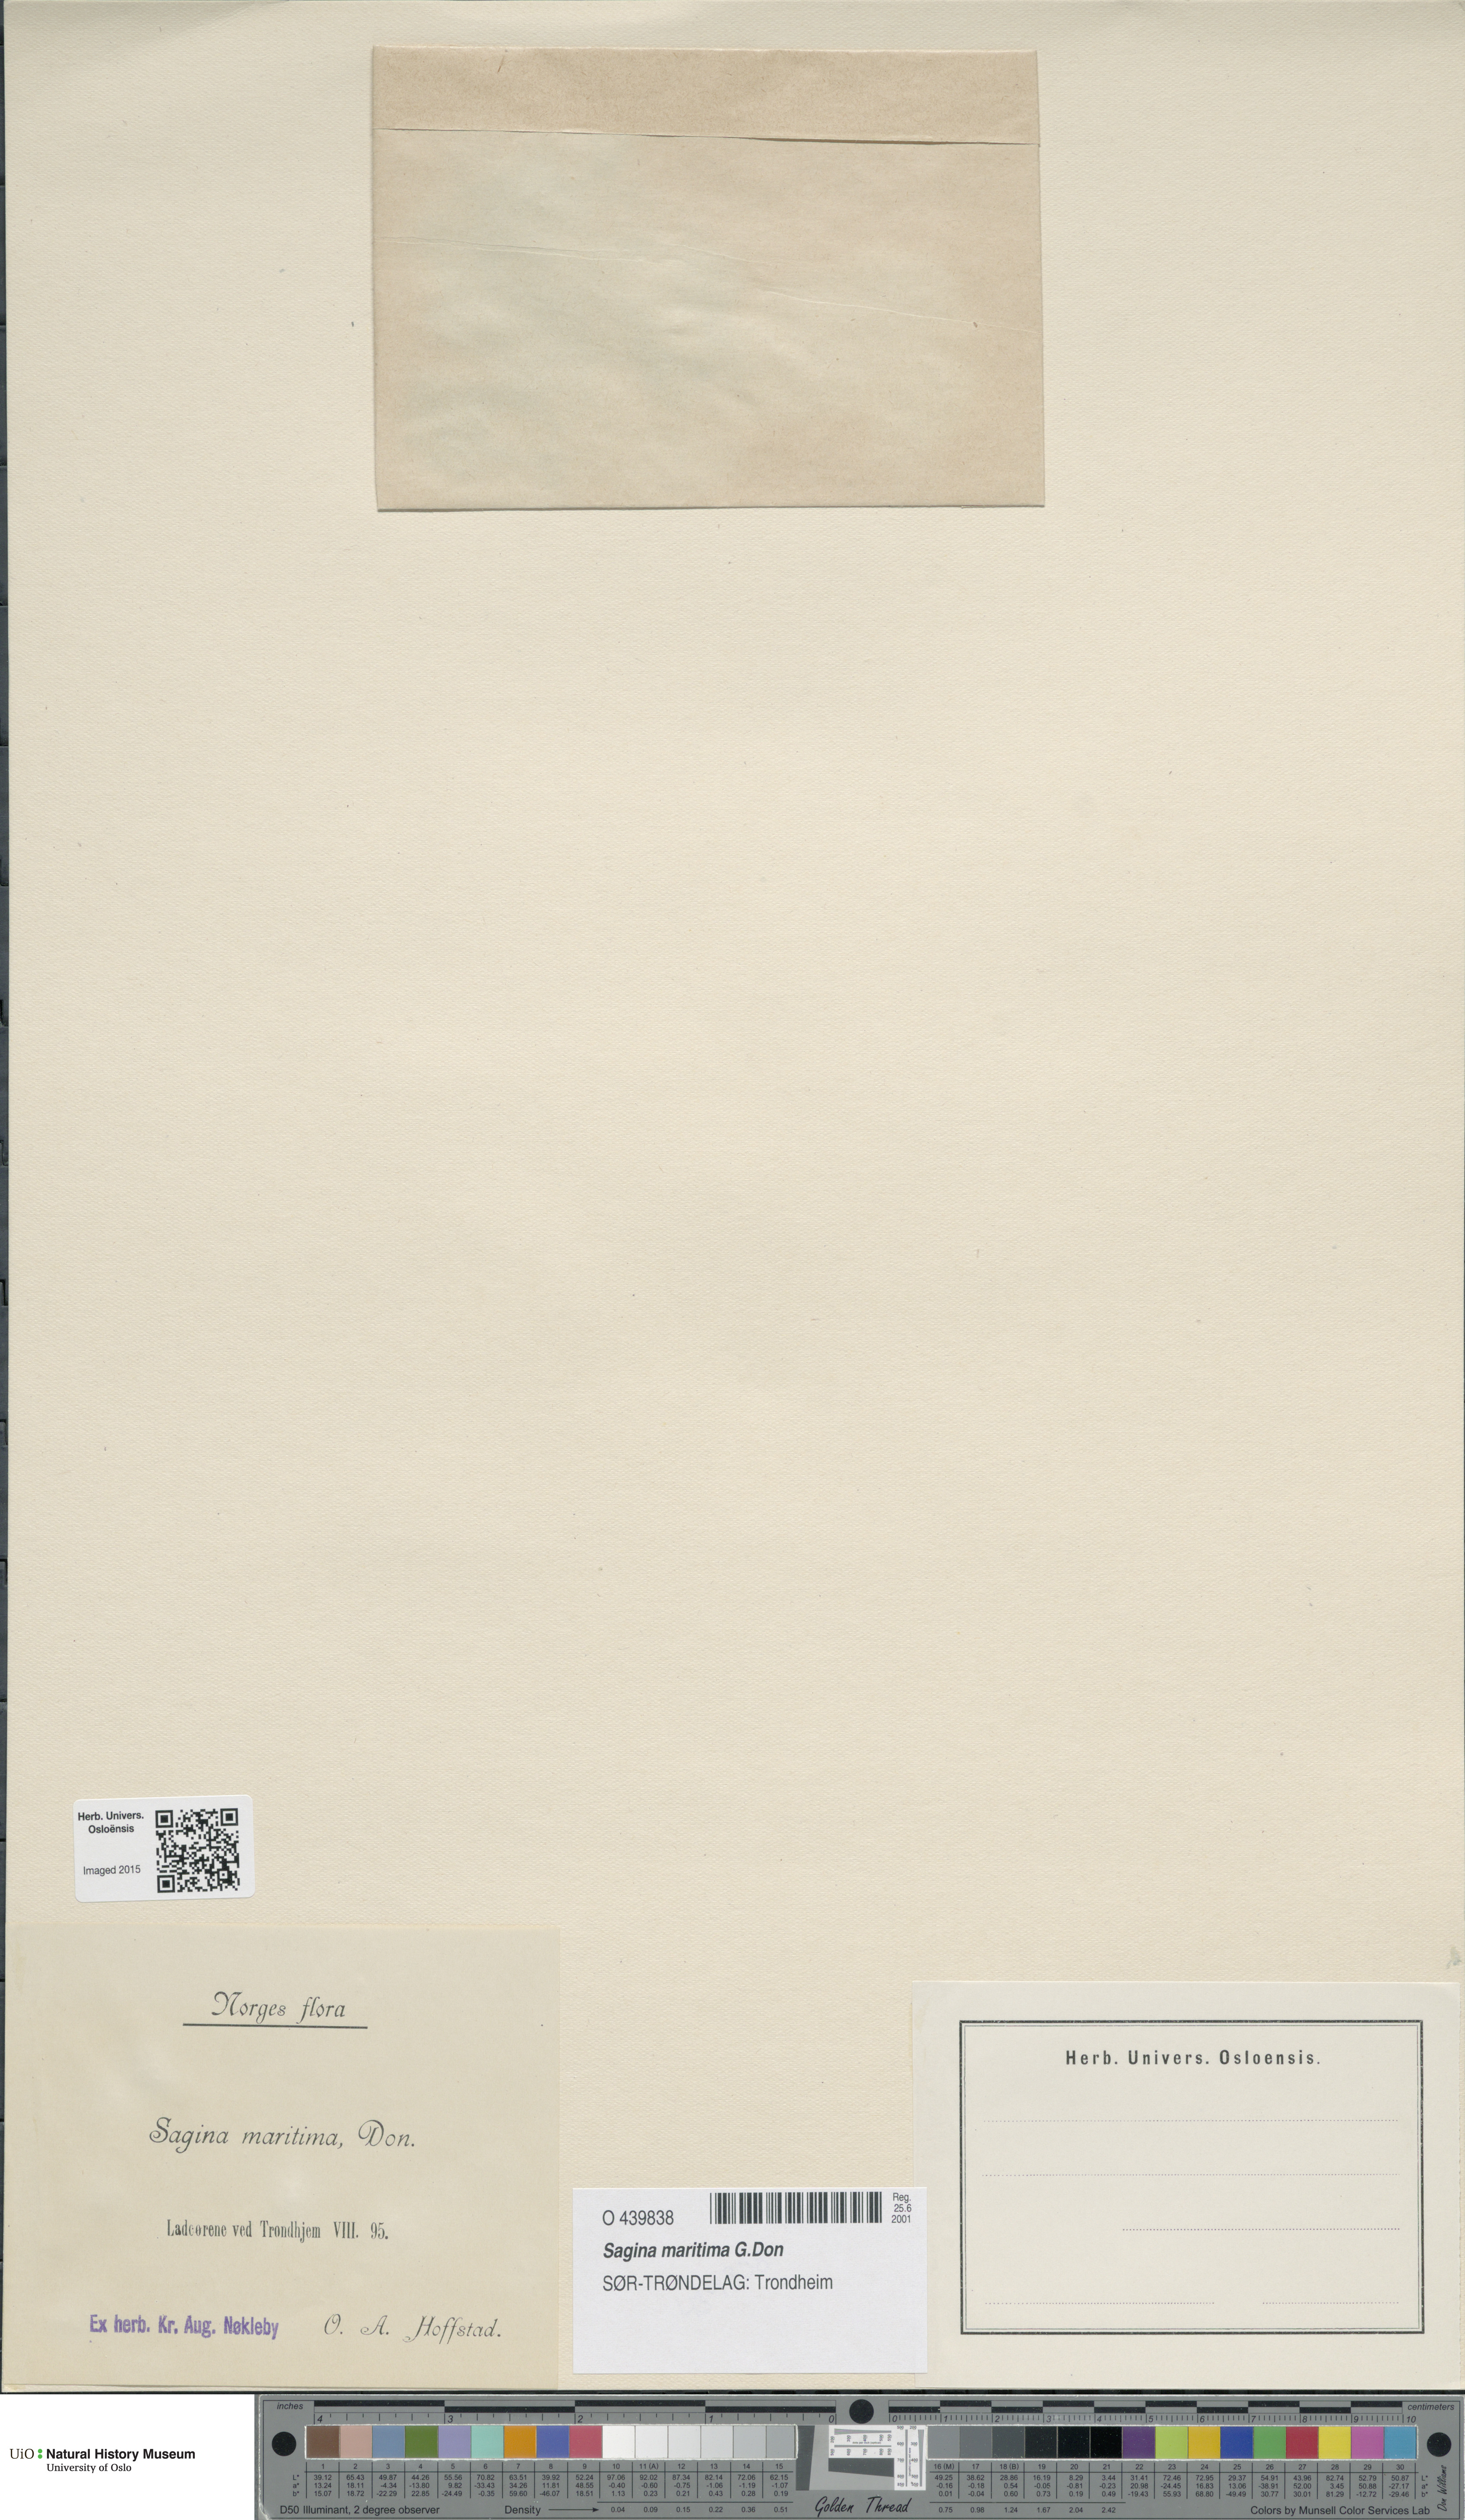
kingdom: Plantae
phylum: Tracheophyta
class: Magnoliopsida
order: Caryophyllales
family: Caryophyllaceae
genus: Sagina
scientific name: Sagina maritima
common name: Sea pearlwort
